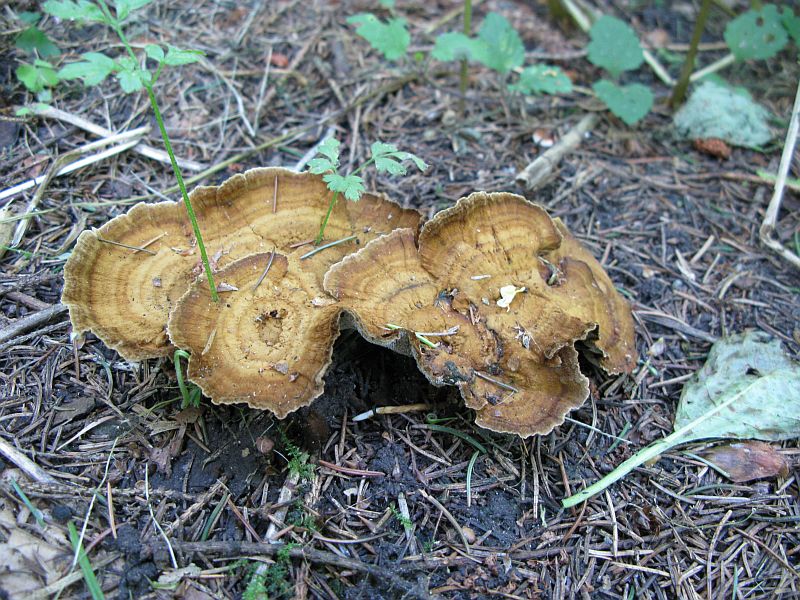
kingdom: Fungi
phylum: Basidiomycota
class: Agaricomycetes
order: Hymenochaetales
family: Hymenochaetaceae
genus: Coltricia
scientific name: Coltricia perennis
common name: almindelig sandporesvamp
